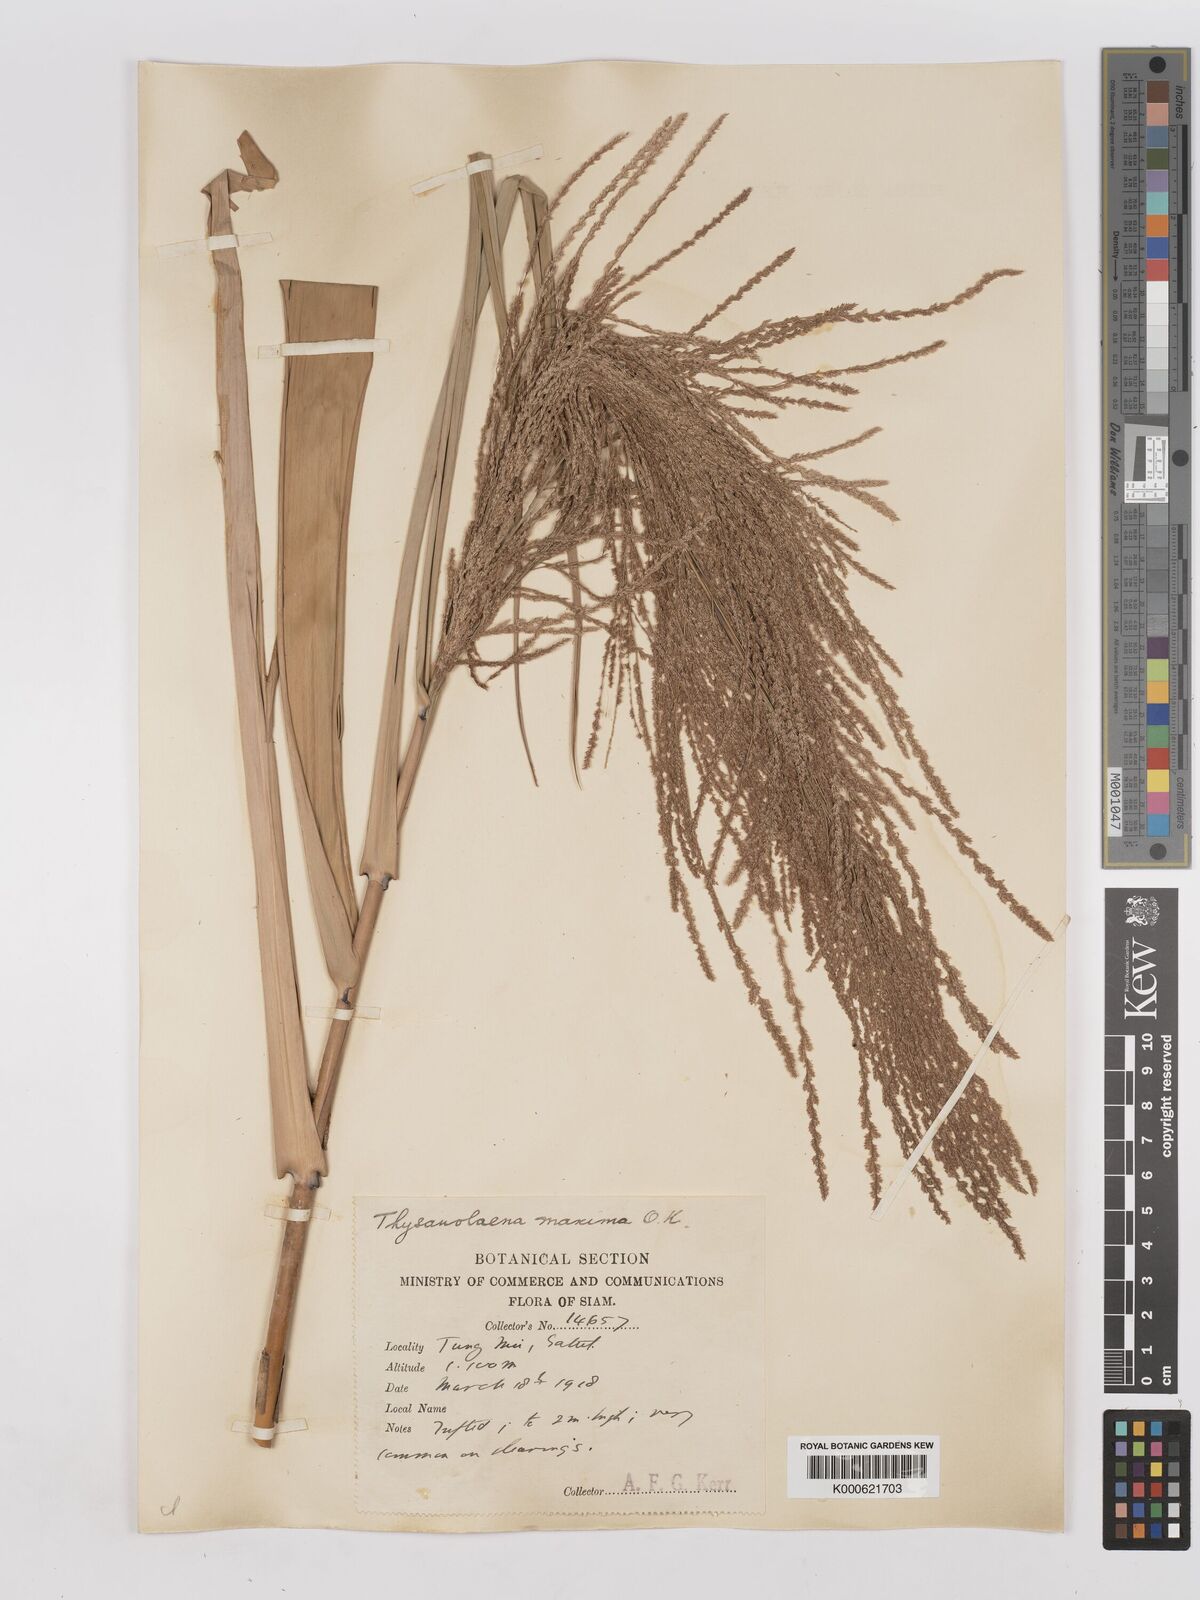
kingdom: Plantae
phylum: Tracheophyta
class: Liliopsida
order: Poales
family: Poaceae
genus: Thysanolaena
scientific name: Thysanolaena latifolia
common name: Tiger grass
